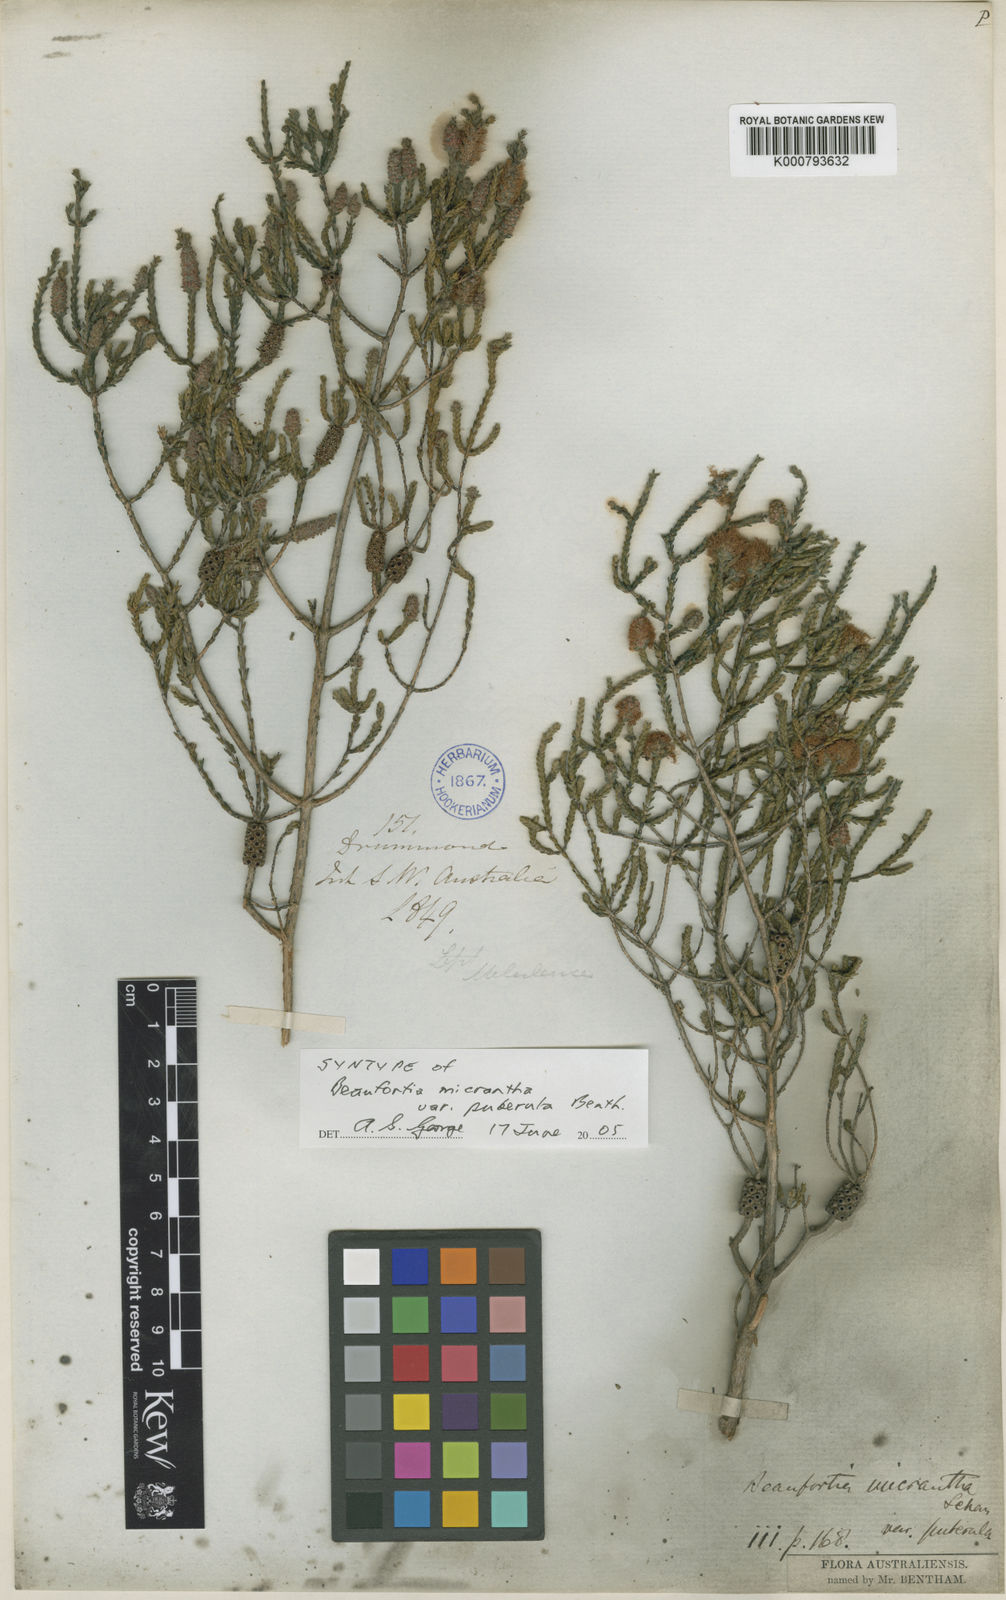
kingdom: Plantae
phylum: Tracheophyta
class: Magnoliopsida
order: Myrtales
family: Myrtaceae
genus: Melaleuca
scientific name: Melaleuca micrantha
